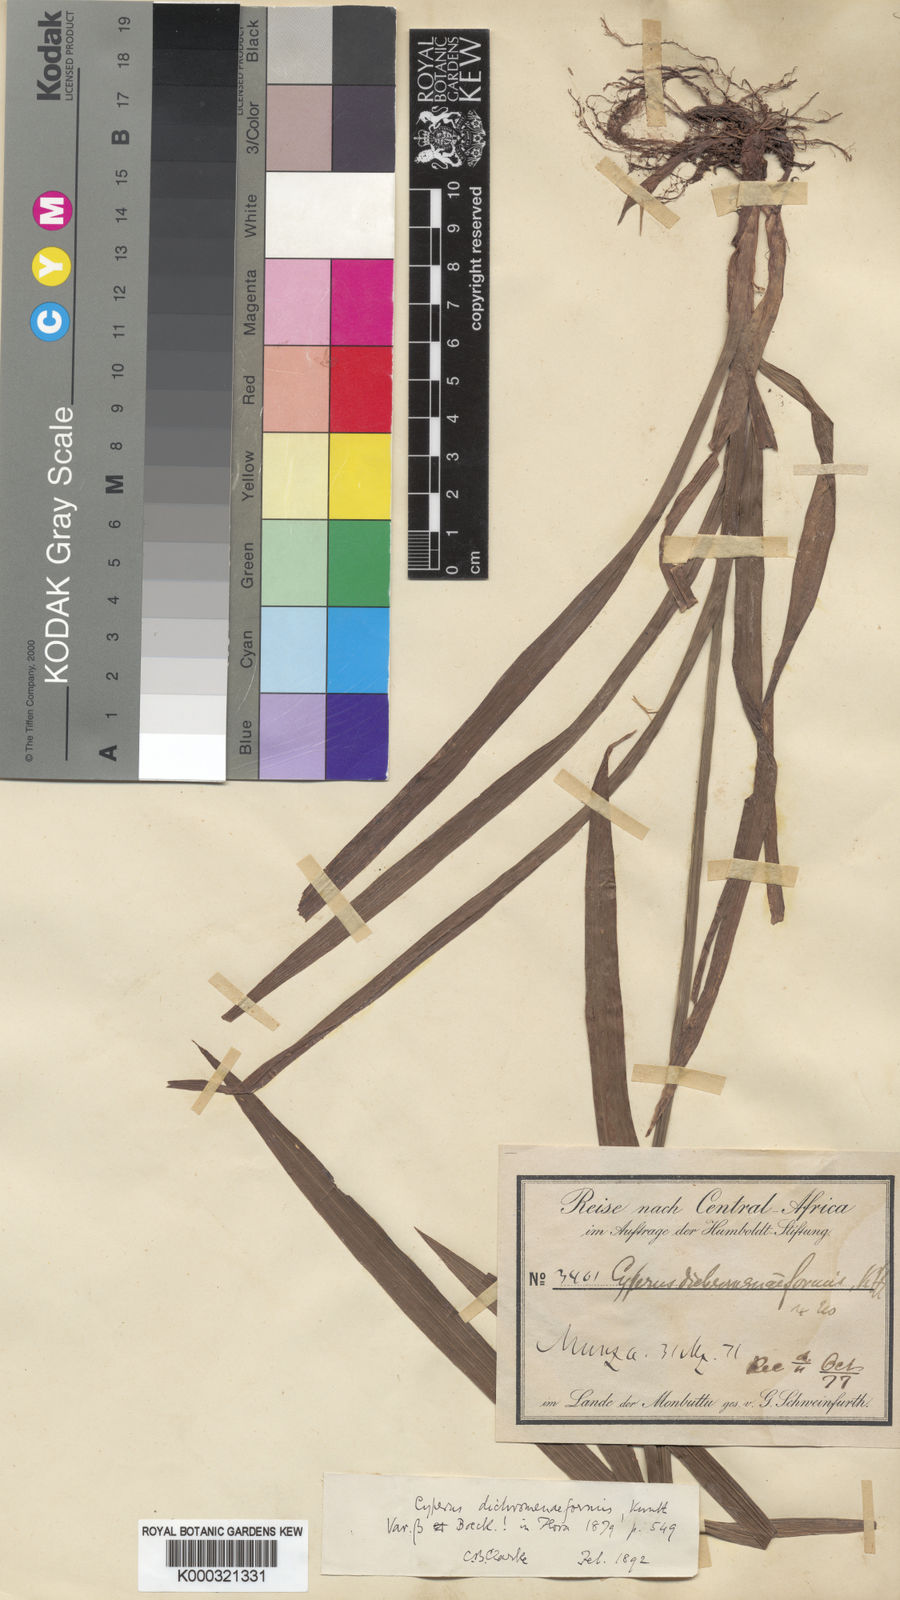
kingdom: Plantae
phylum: Tracheophyta
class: Liliopsida
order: Poales
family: Cyperaceae
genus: Cyperus
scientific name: Cyperus mapanioides
